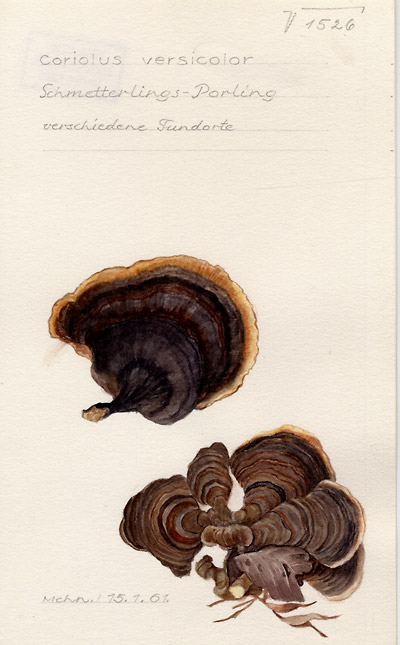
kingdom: Fungi
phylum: Basidiomycota
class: Agaricomycetes
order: Polyporales
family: Polyporaceae
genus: Trametes
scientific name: Trametes versicolor
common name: Turkeytail
